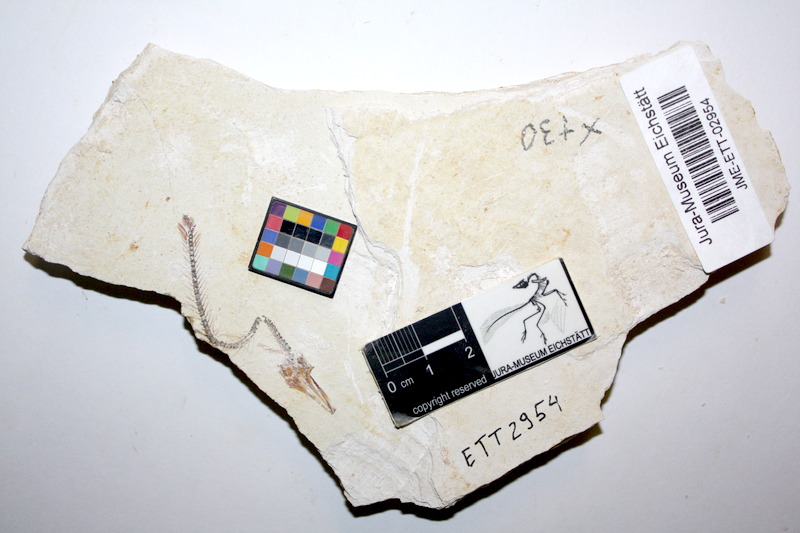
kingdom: Animalia
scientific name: Animalia
